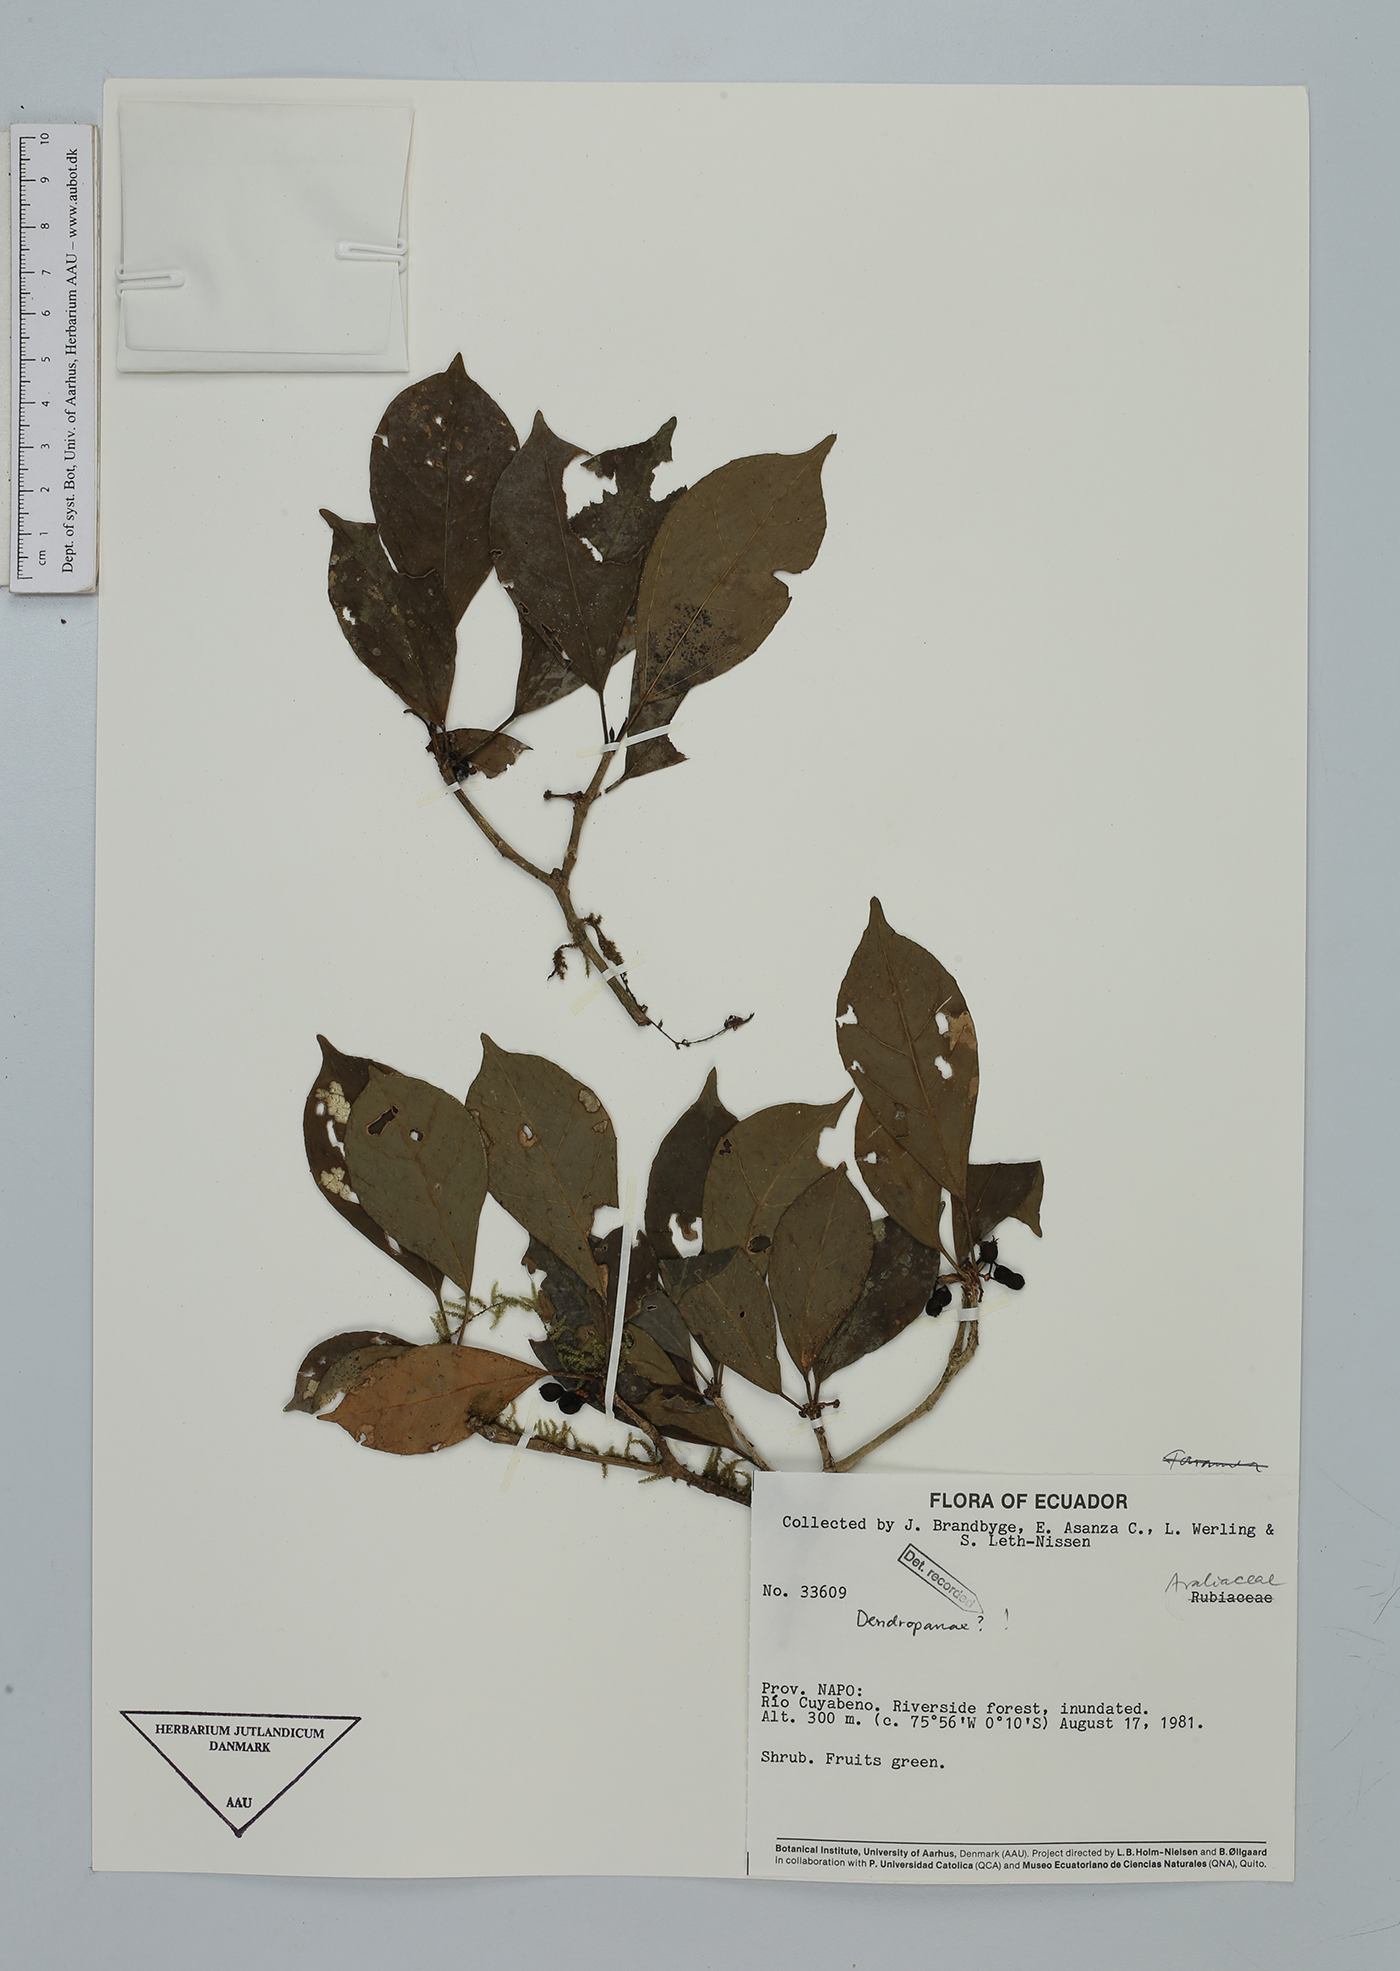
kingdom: Plantae
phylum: Tracheophyta
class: Magnoliopsida
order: Apiales
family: Araliaceae
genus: Dendropanax
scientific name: Dendropanax
